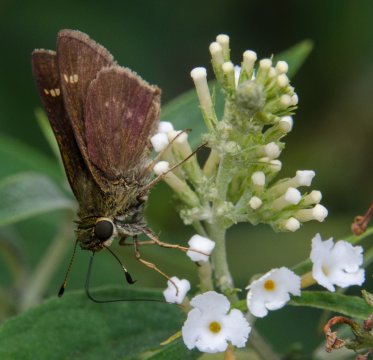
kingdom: Animalia
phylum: Arthropoda
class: Insecta
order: Lepidoptera
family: Hesperiidae
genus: Vernia
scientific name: Vernia verna
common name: Little Glassywing
